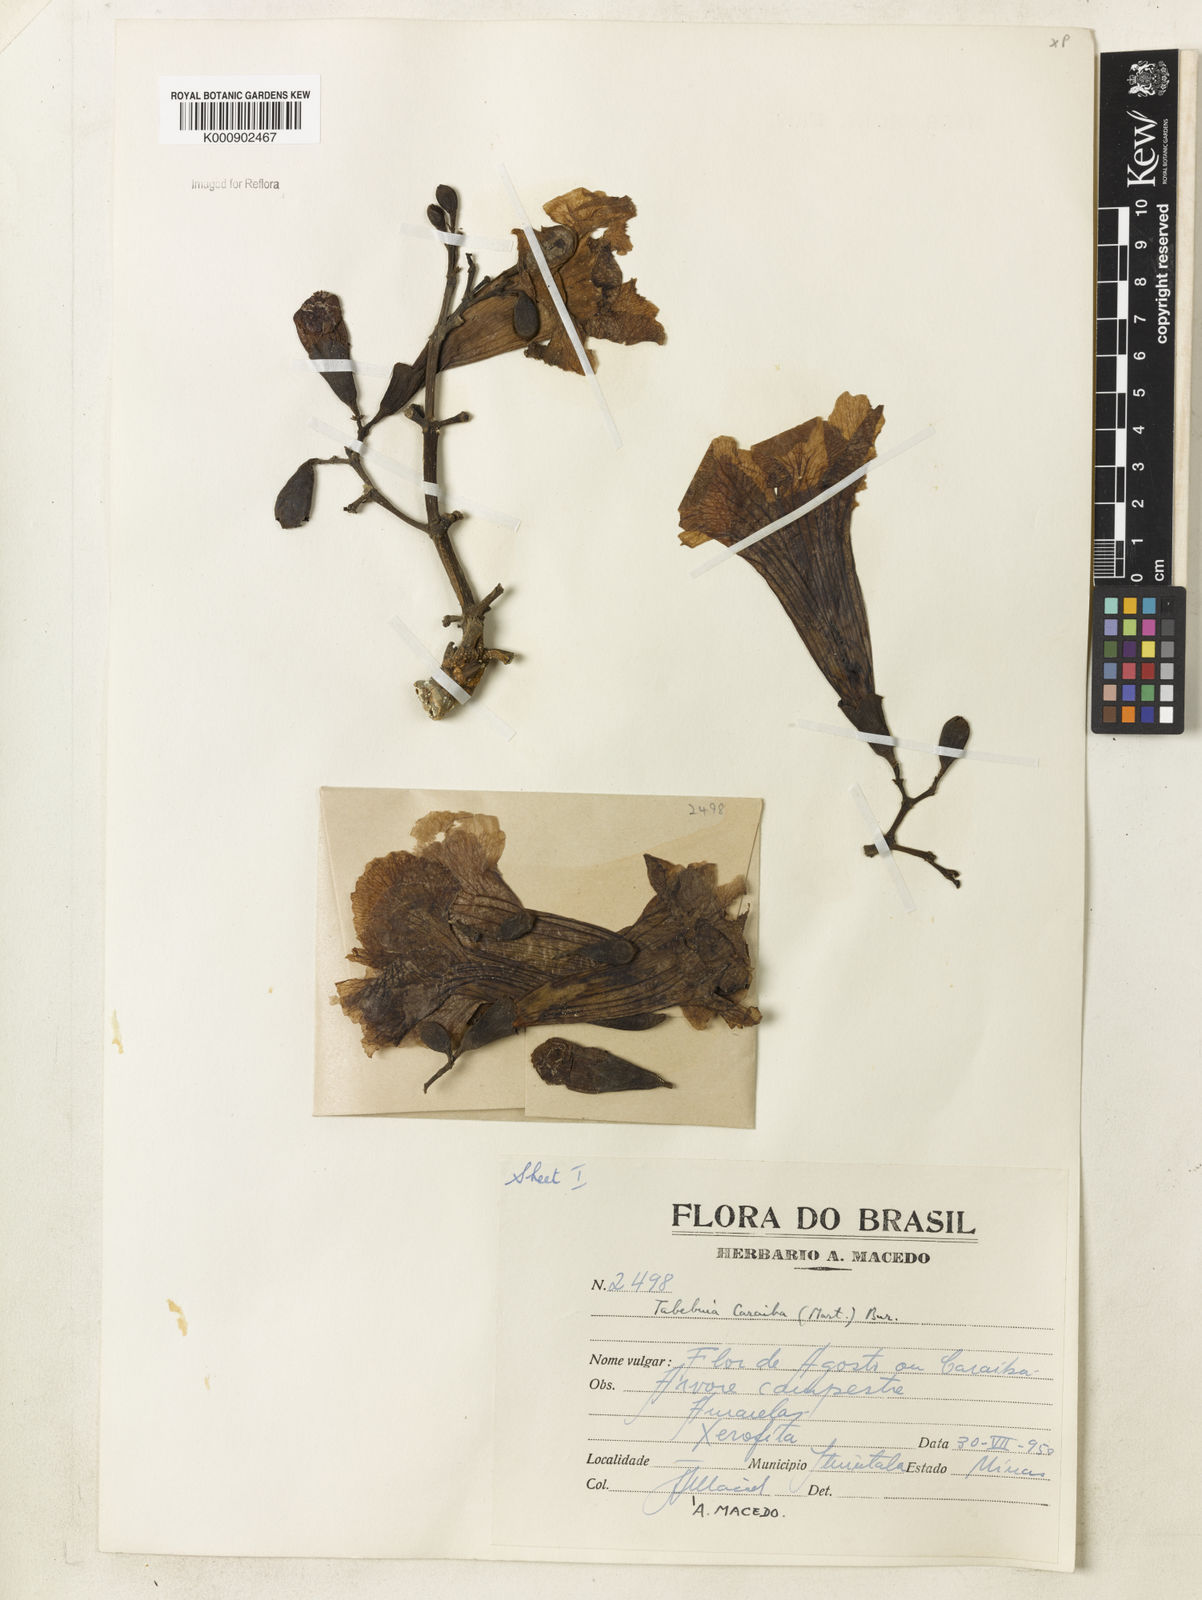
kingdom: Plantae
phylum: Tracheophyta
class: Magnoliopsida
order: Lamiales
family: Bignoniaceae
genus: Tabebuia
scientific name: Tabebuia aurea
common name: Caribbean trumpet-tree
